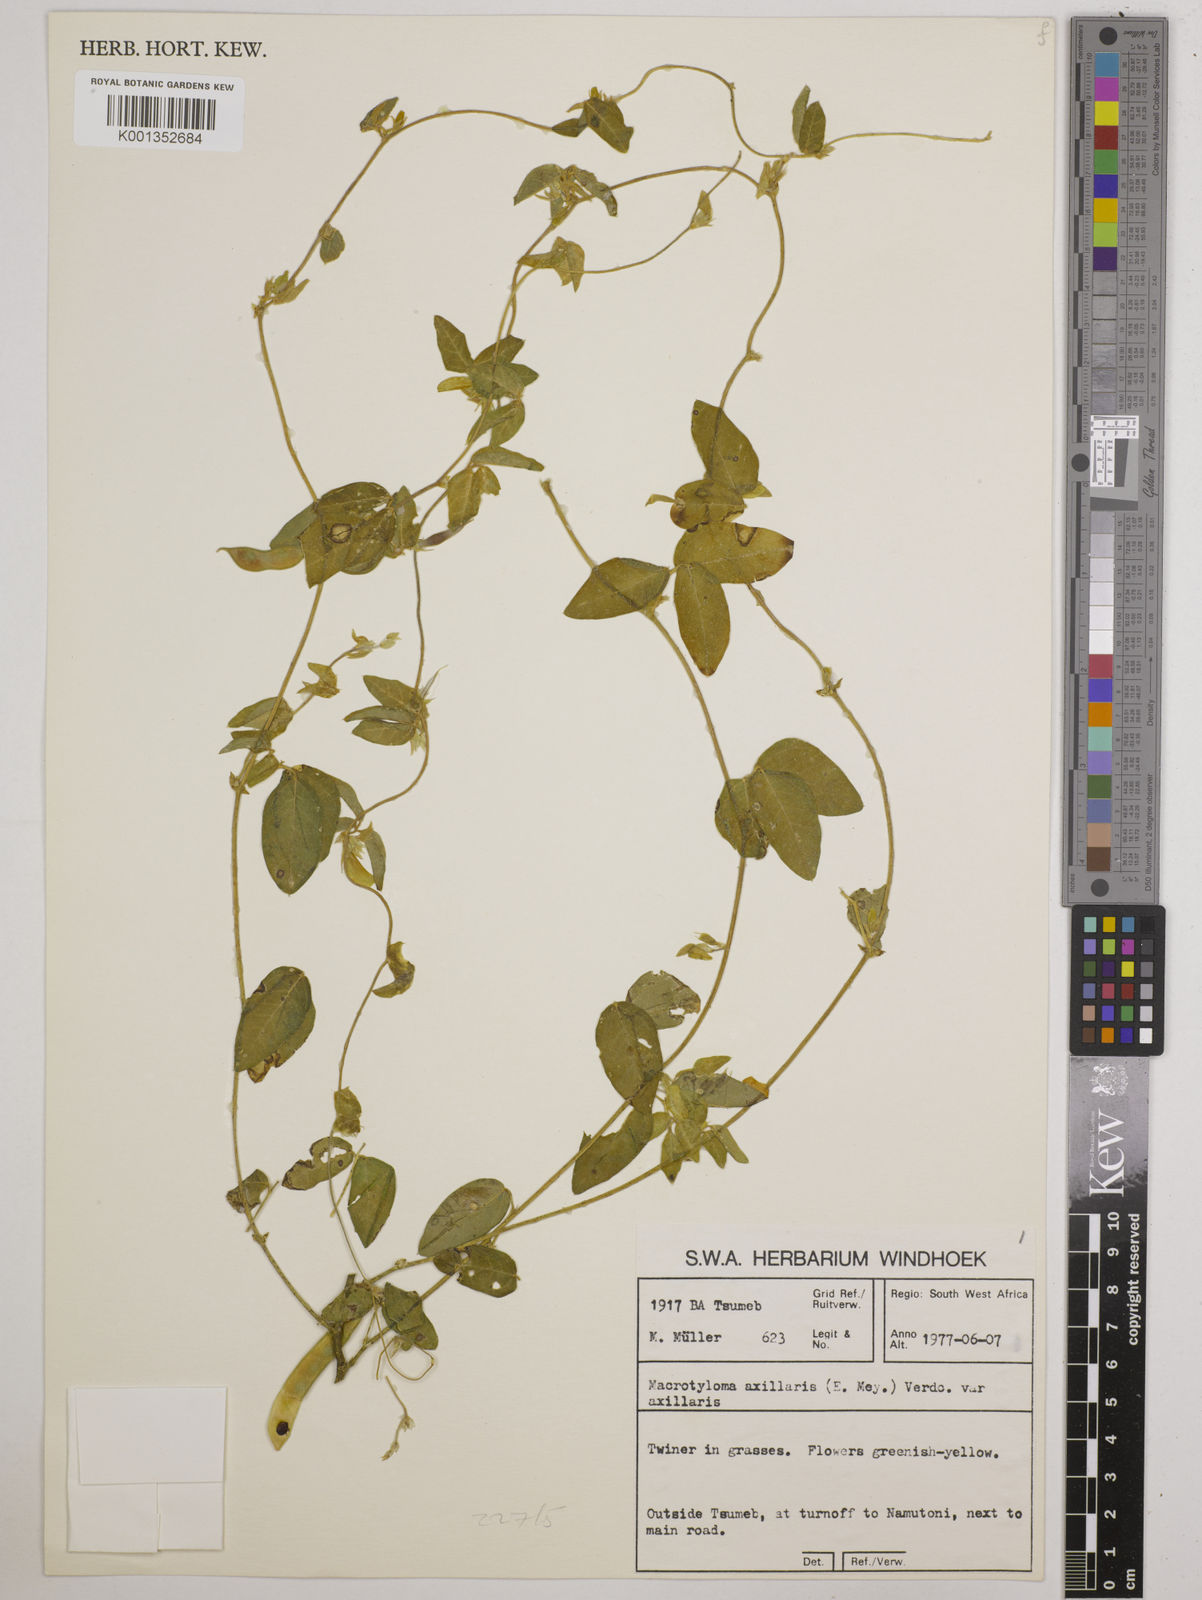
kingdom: Plantae
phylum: Tracheophyta
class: Magnoliopsida
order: Fabales
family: Fabaceae
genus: Macrotyloma
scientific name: Macrotyloma axillare
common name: Perennial horsegram
